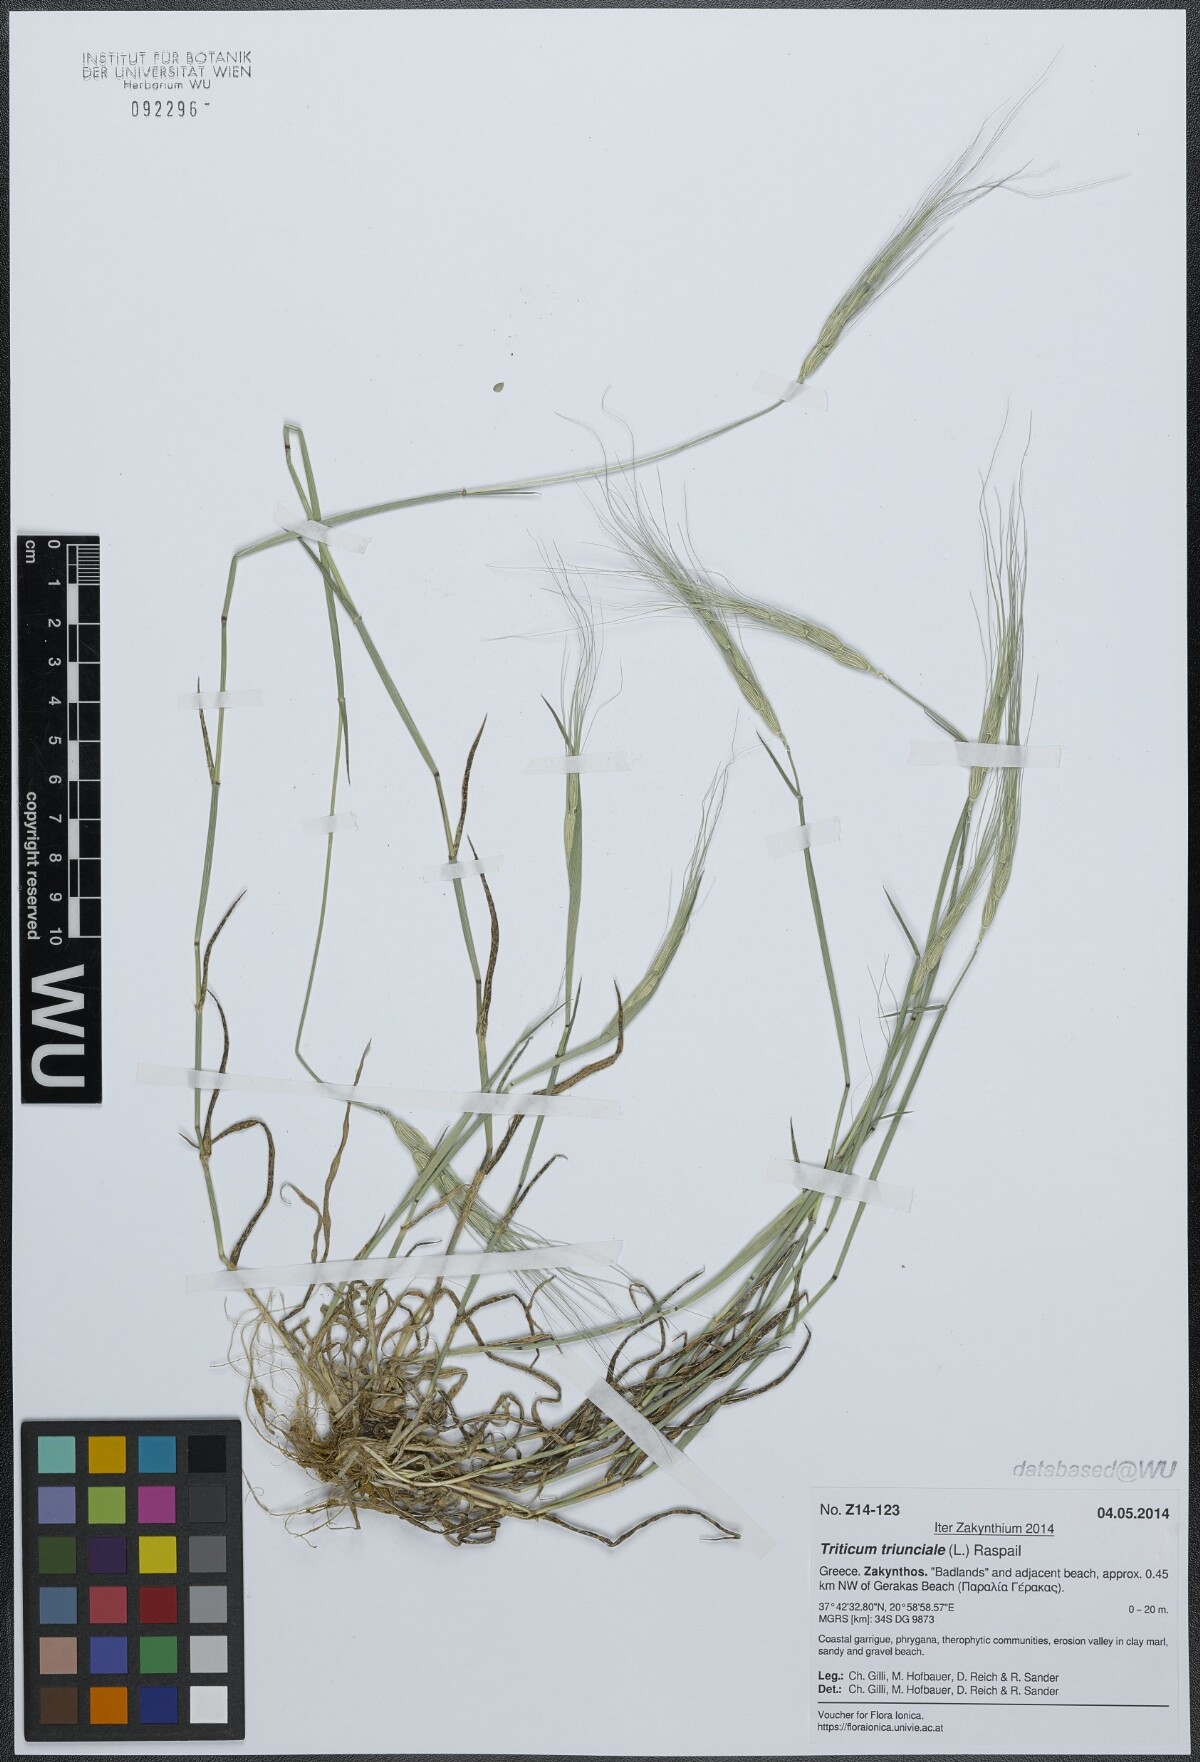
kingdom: Plantae
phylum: Tracheophyta
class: Liliopsida
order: Poales
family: Poaceae
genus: Aegilops
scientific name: Aegilops triuncialis
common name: Barb goat grass
